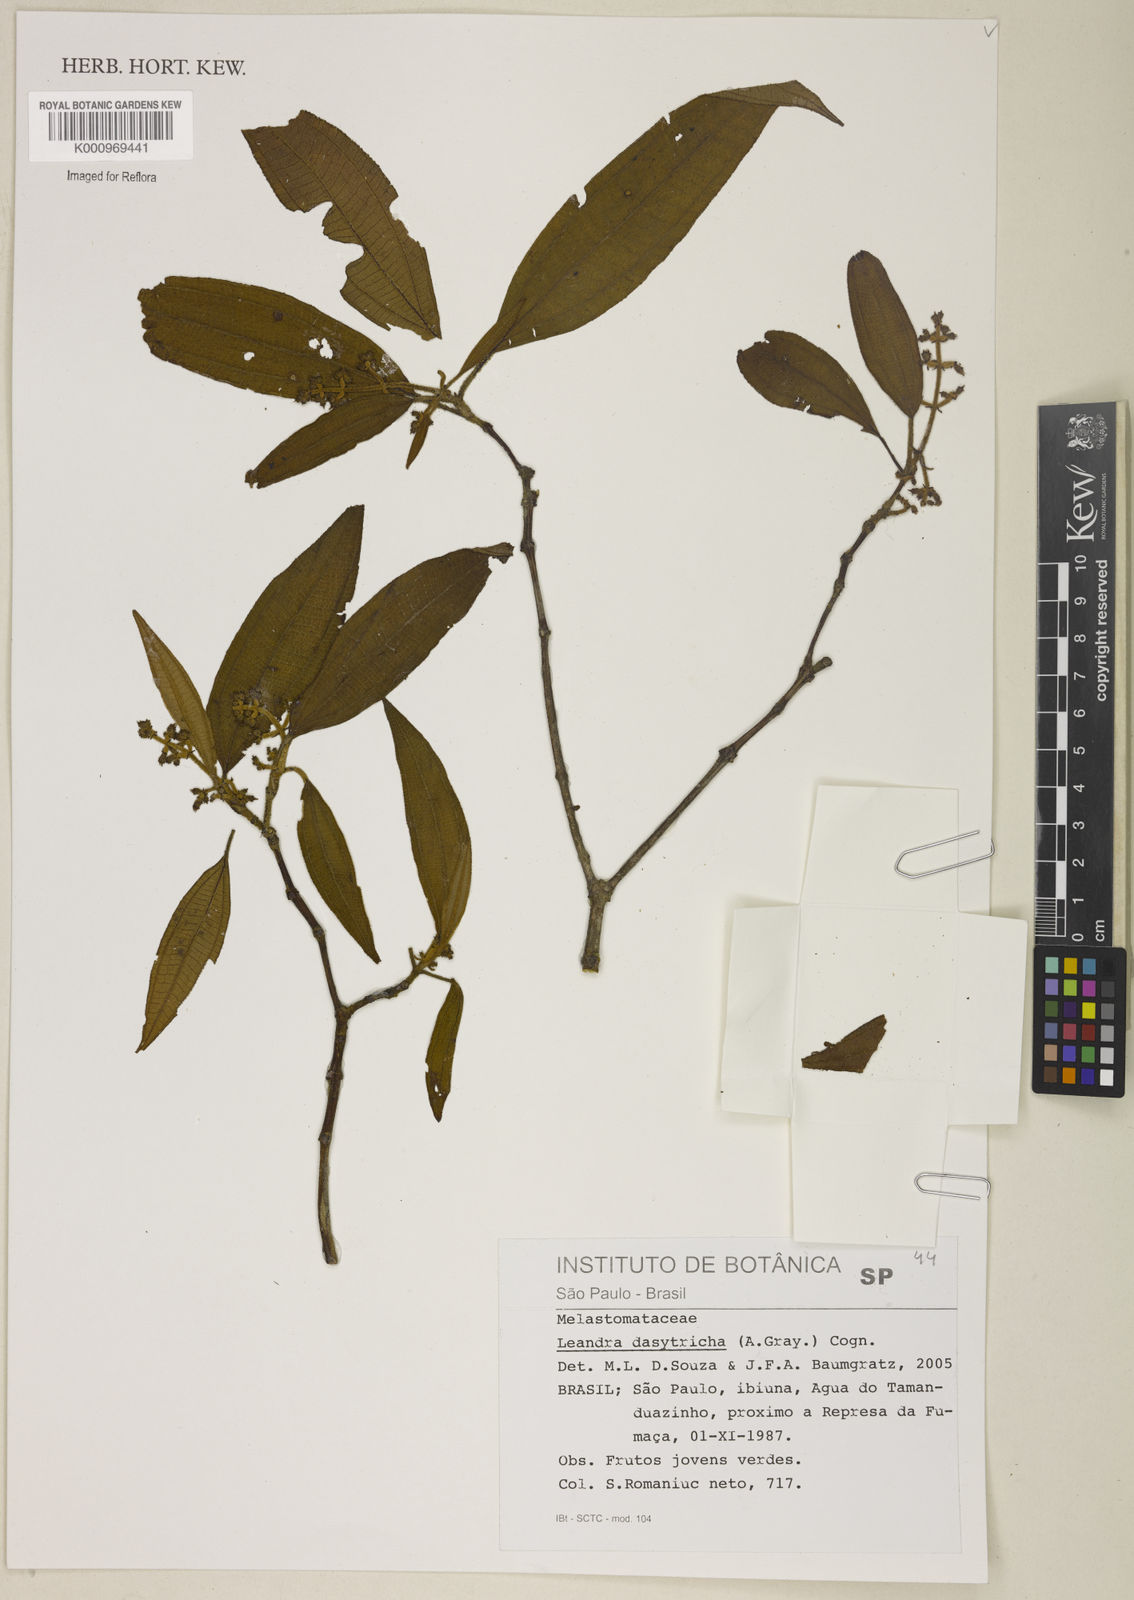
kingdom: Plantae
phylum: Tracheophyta
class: Magnoliopsida
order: Myrtales
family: Melastomataceae
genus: Miconia
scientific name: Miconia dasytricha
